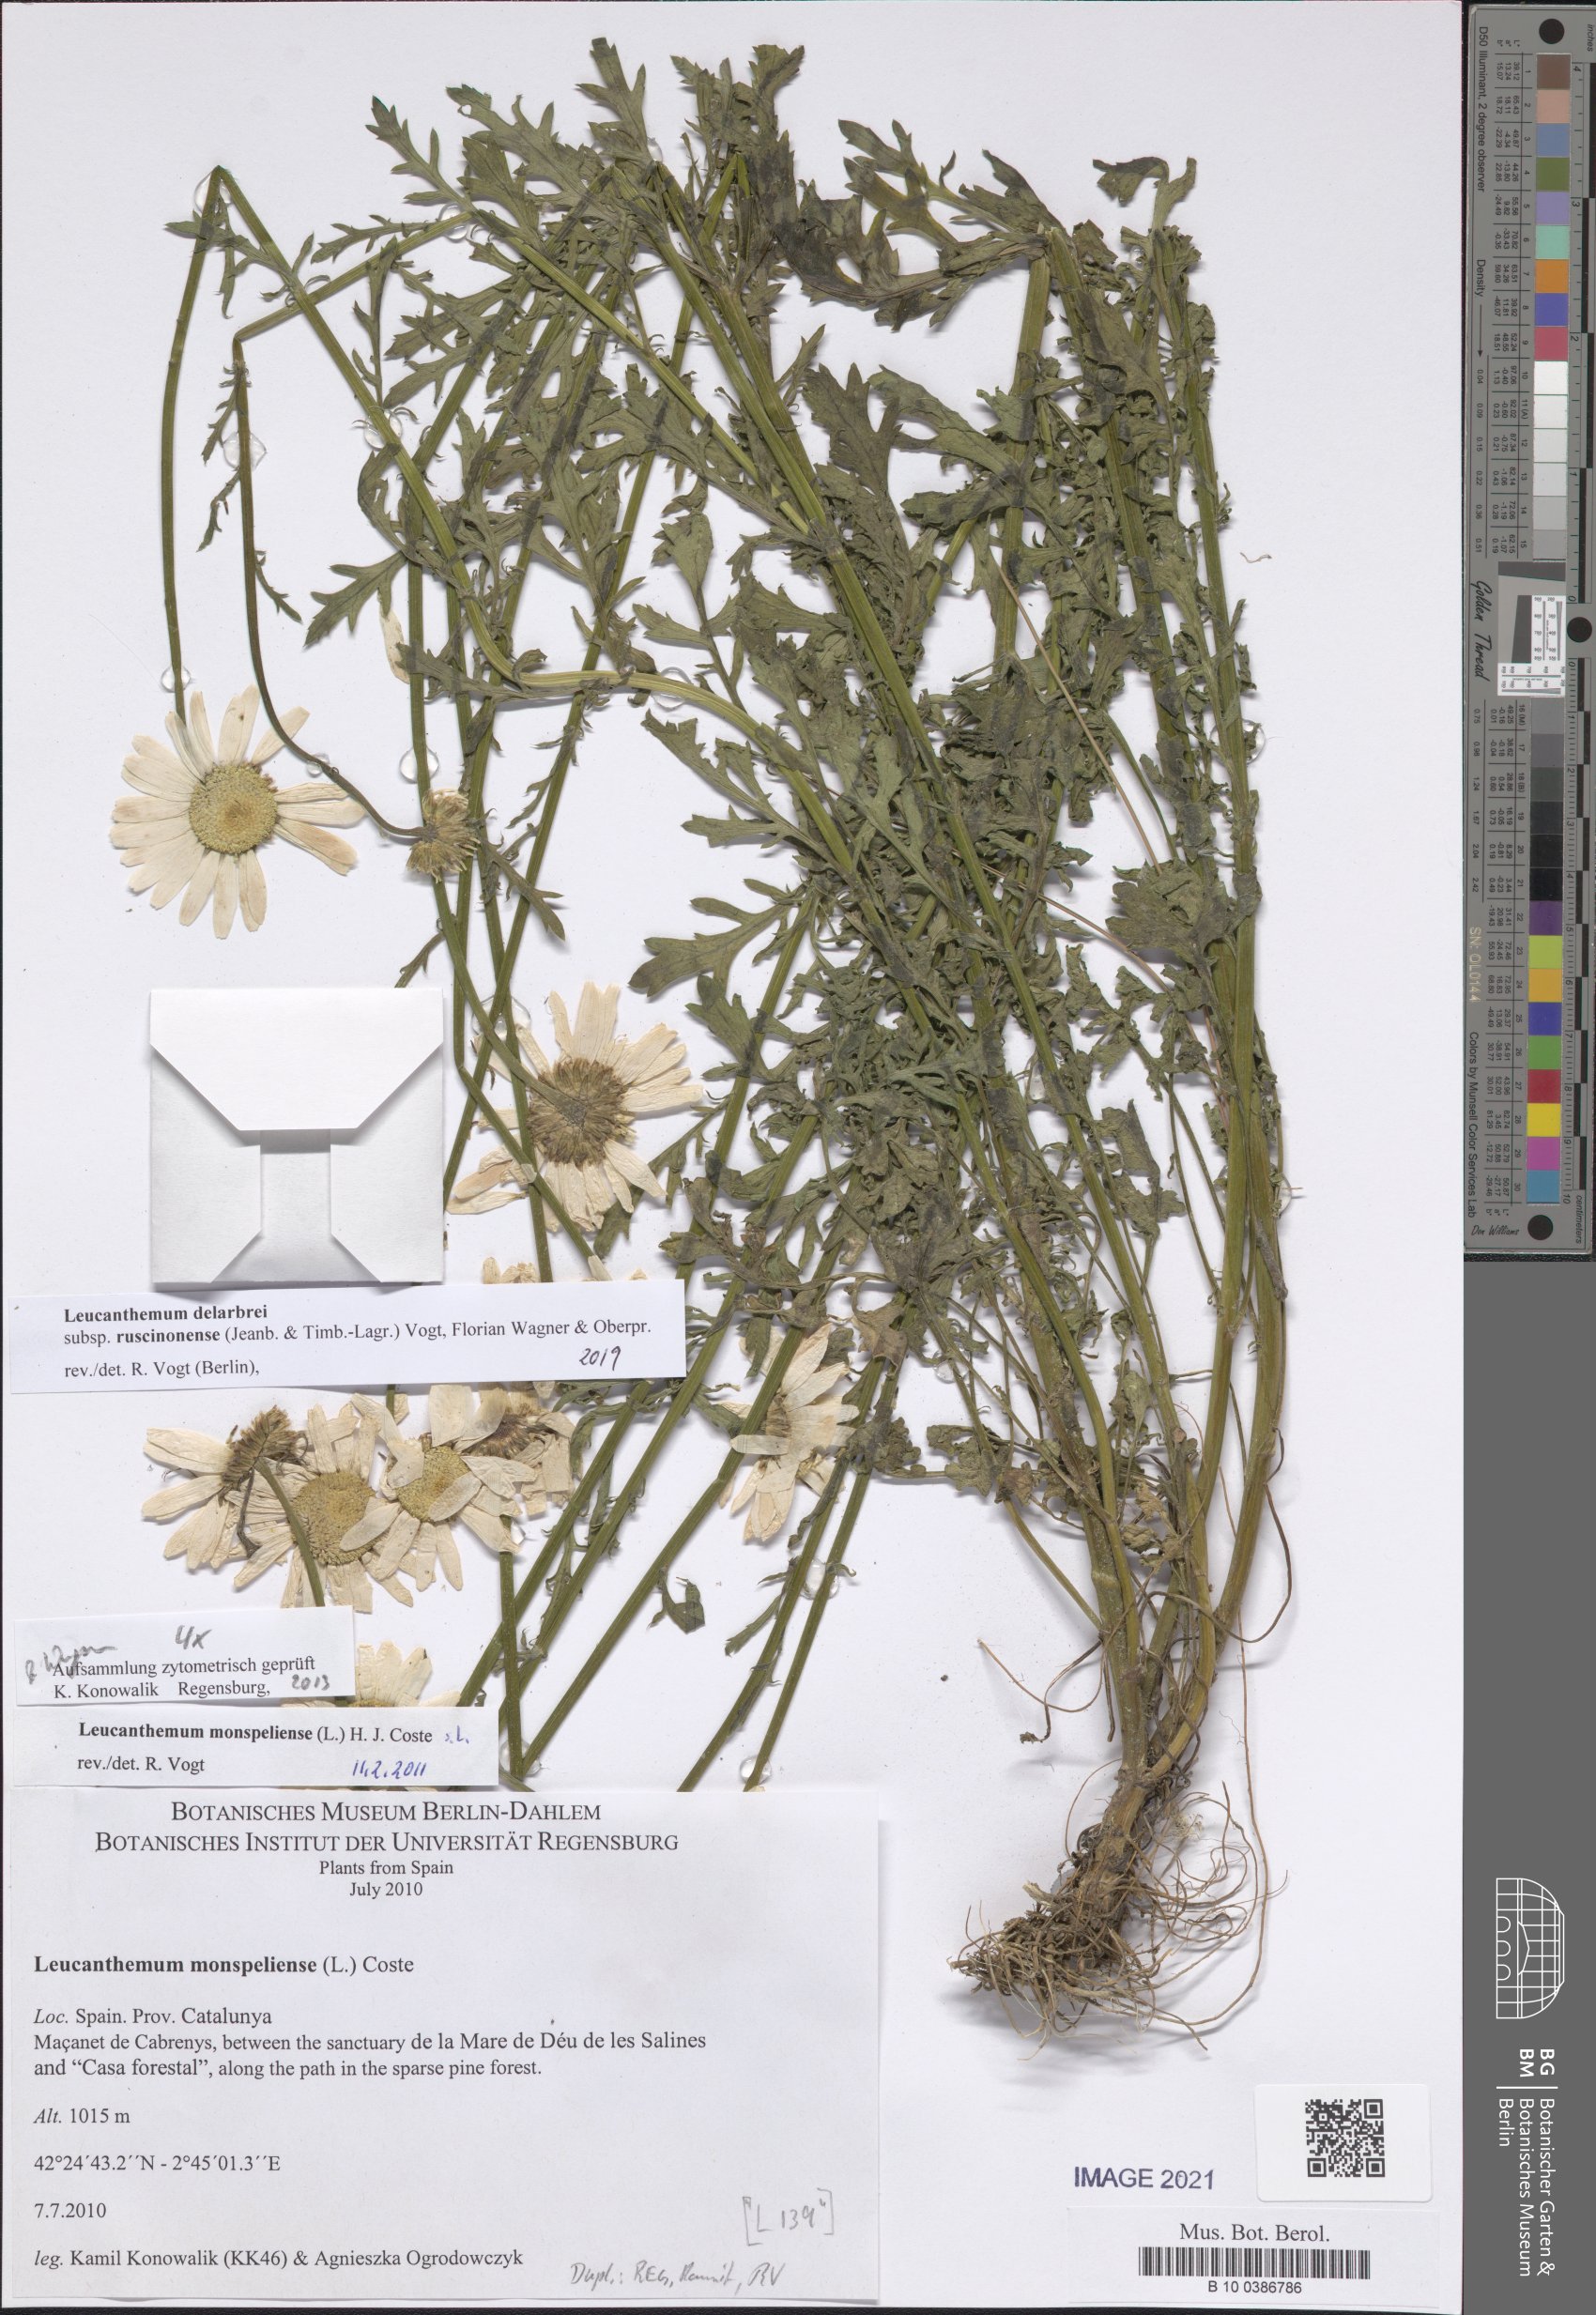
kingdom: Plantae
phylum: Tracheophyta
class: Magnoliopsida
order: Asterales
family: Asteraceae
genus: Leucanthemum
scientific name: Leucanthemum delarbrei
